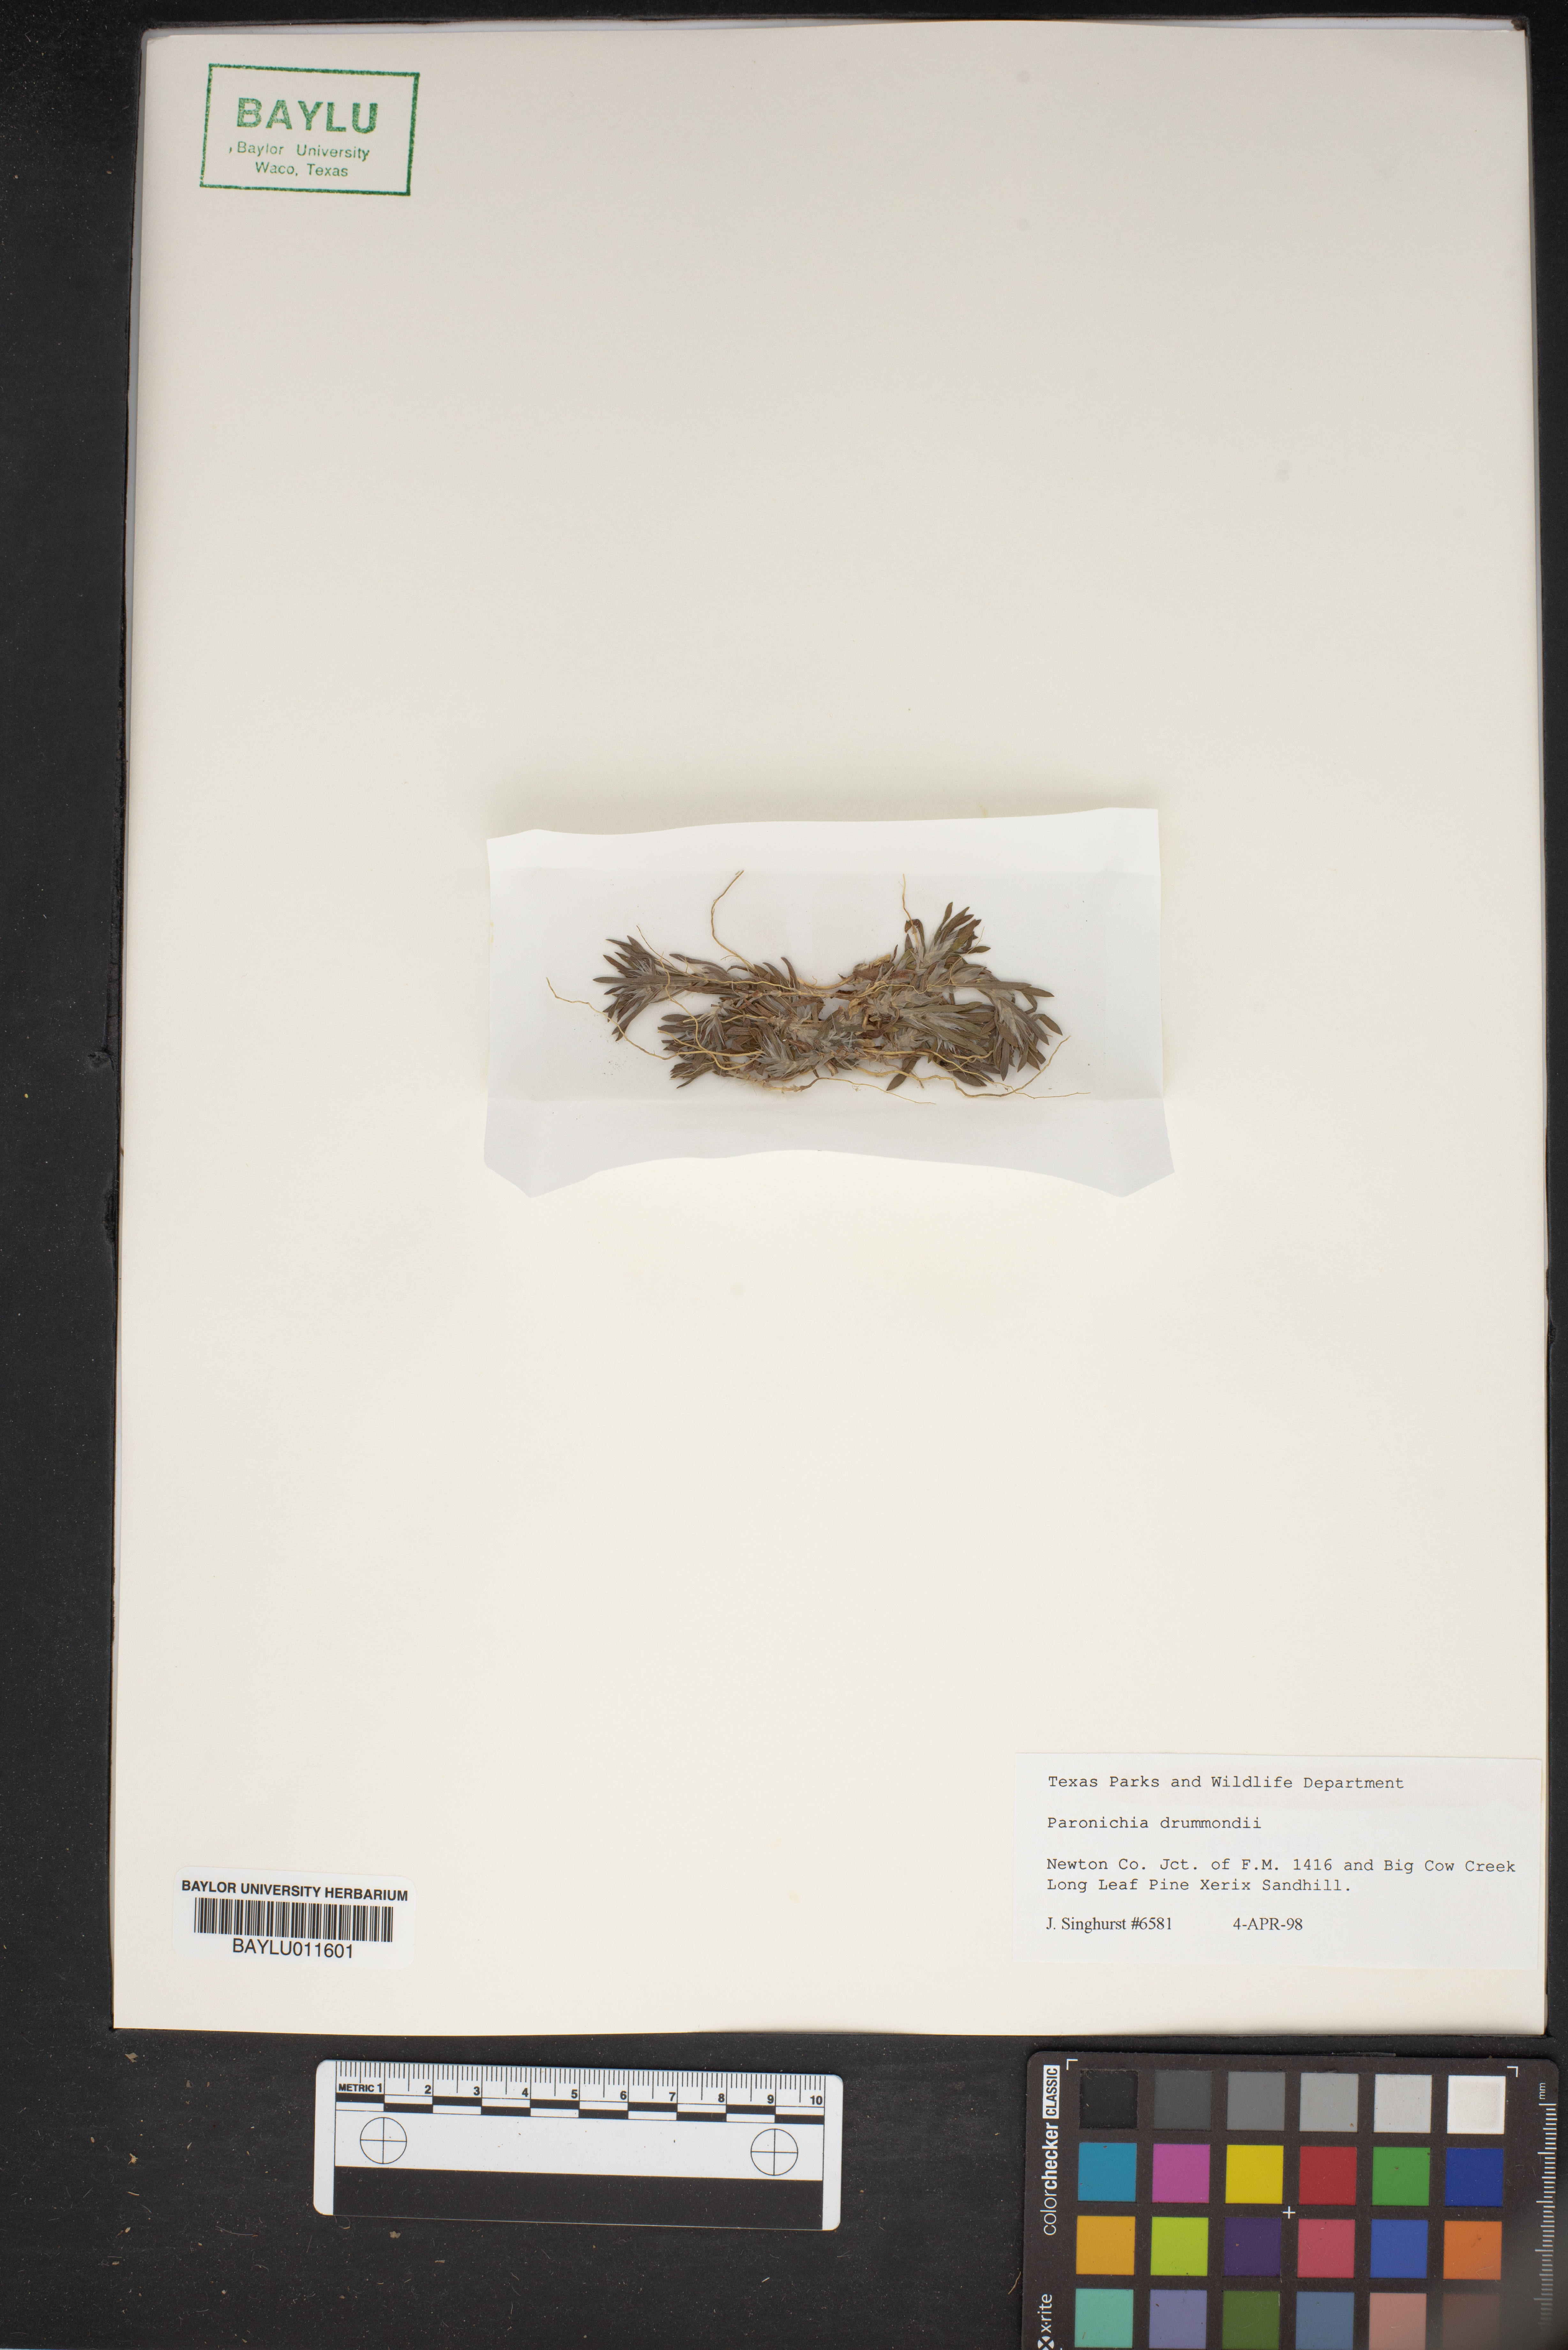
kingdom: Plantae
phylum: Tracheophyta
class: Magnoliopsida
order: Caryophyllales
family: Caryophyllaceae
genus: Paronychia
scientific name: Paronychia drummondii
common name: Drummond's nailwort
